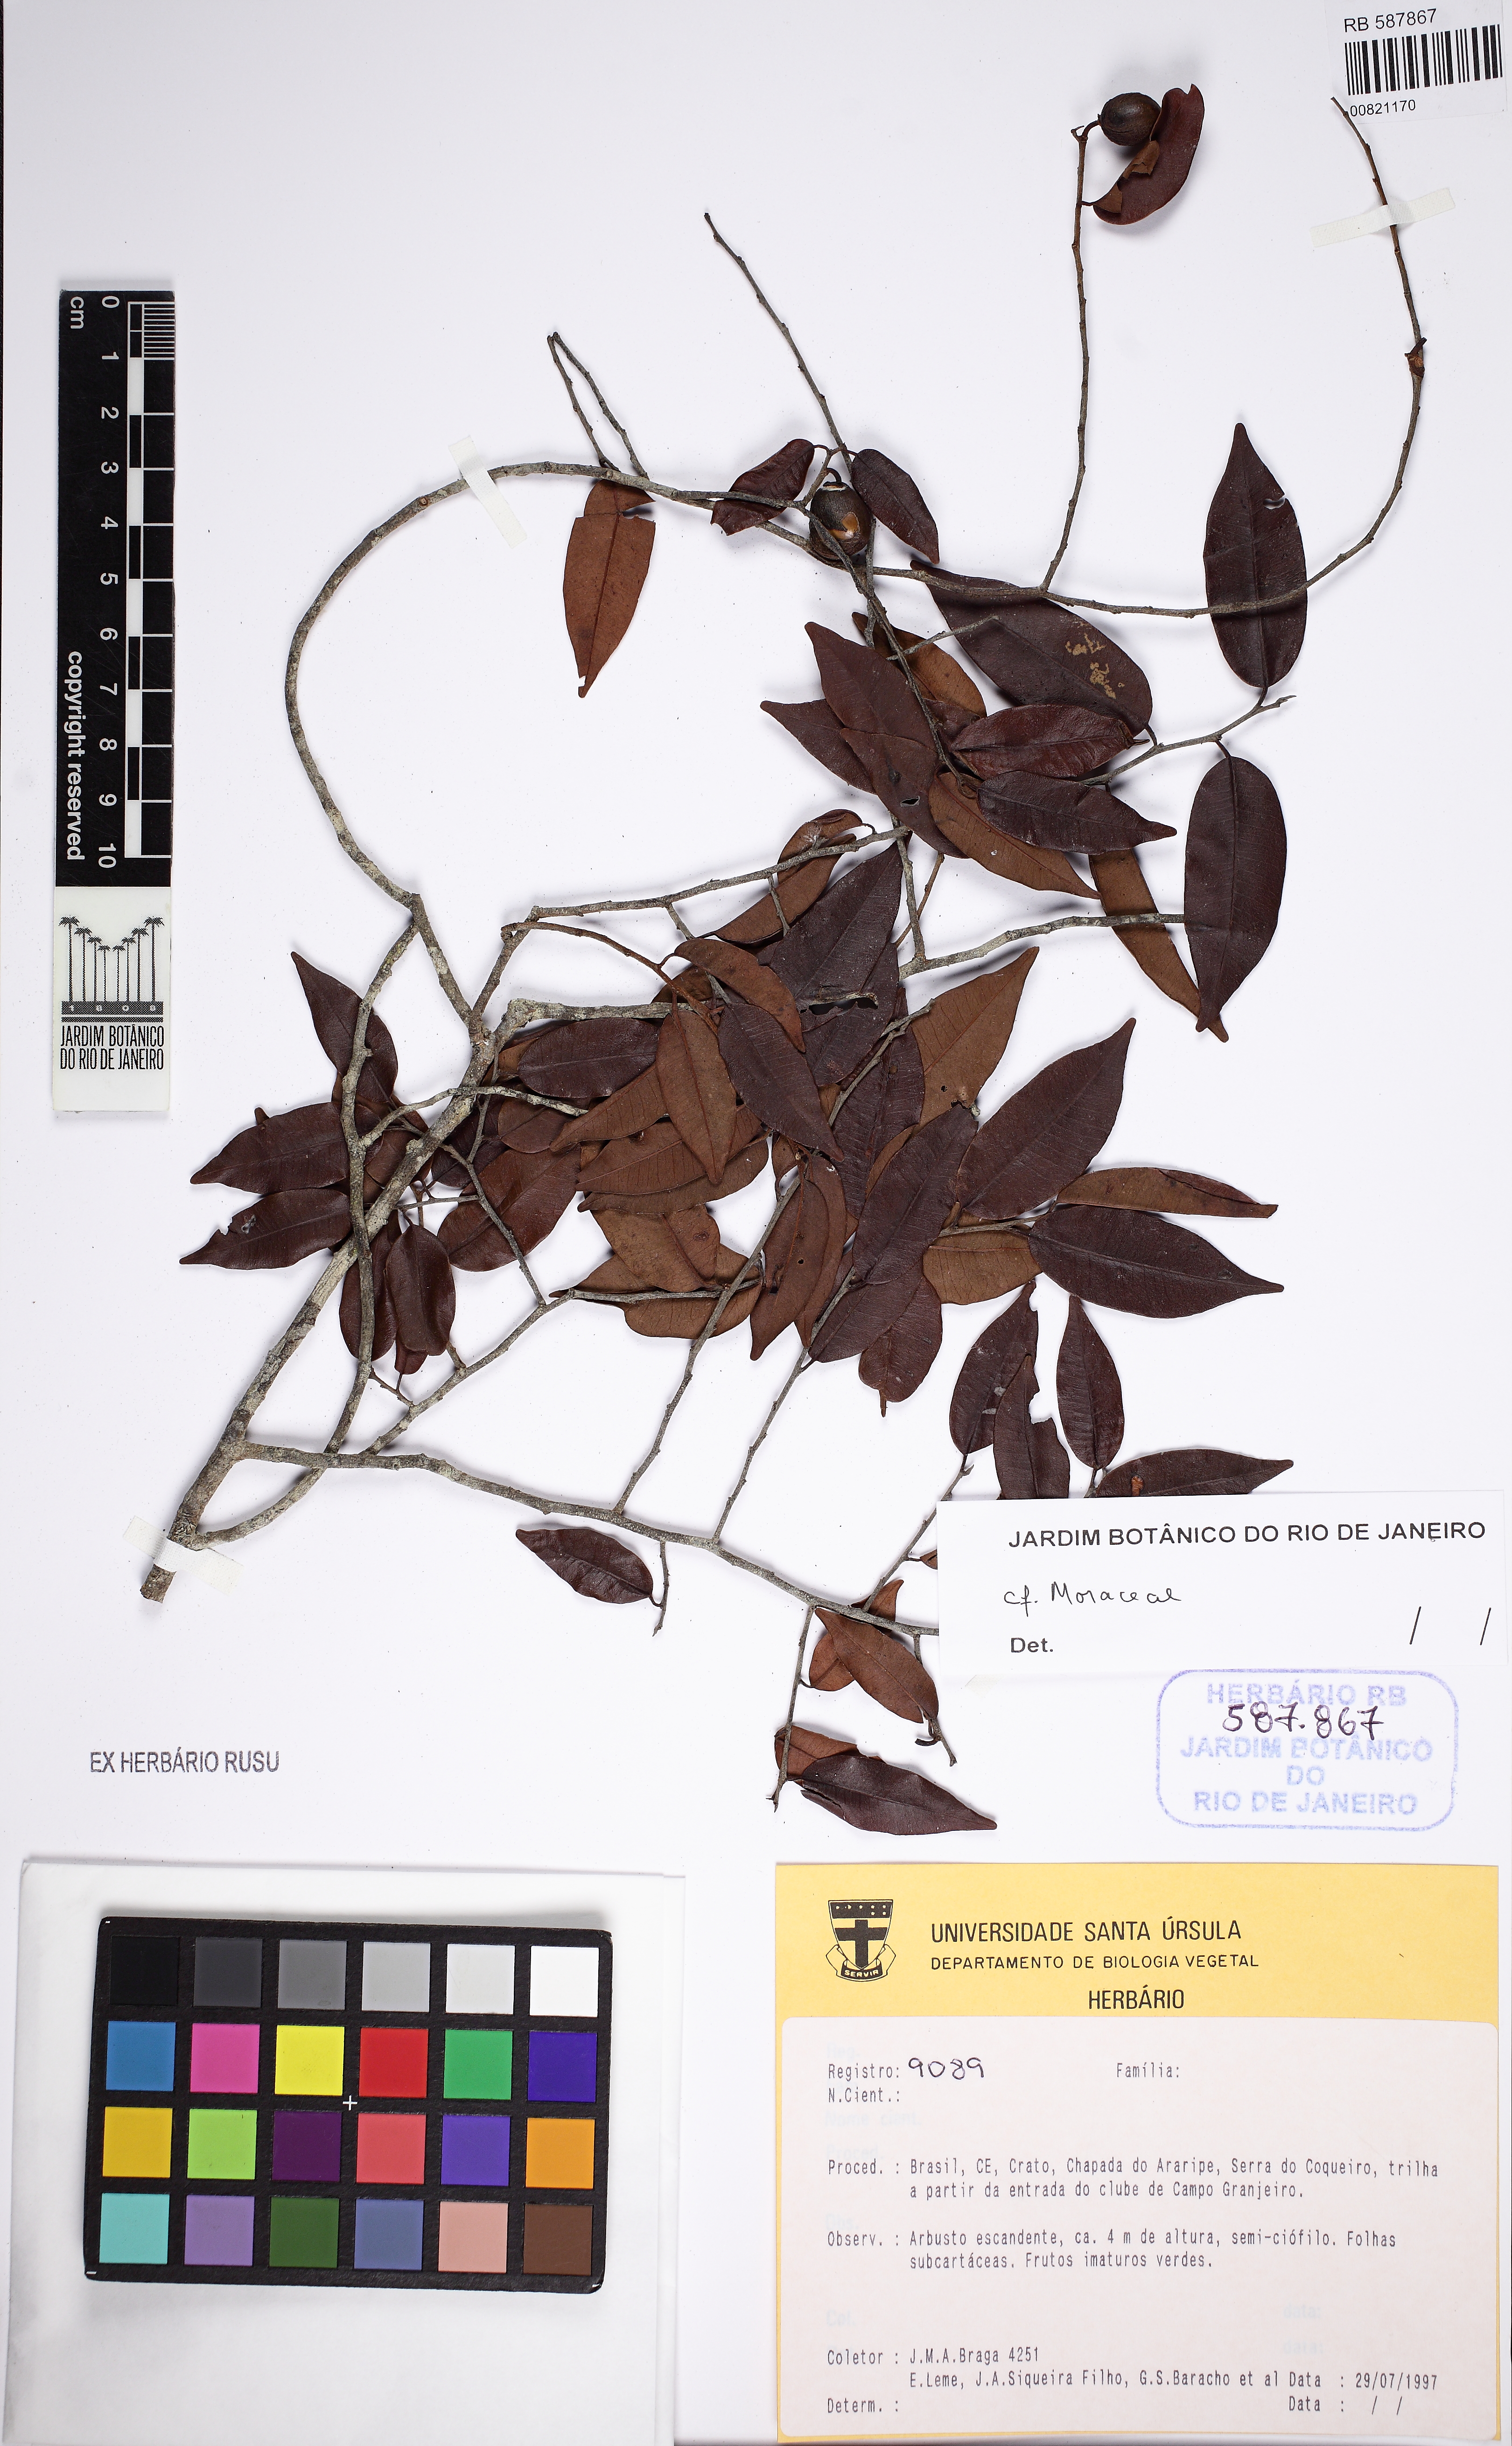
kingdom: Plantae
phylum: Tracheophyta
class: Magnoliopsida
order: Rosales
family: Moraceae
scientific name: Moraceae
